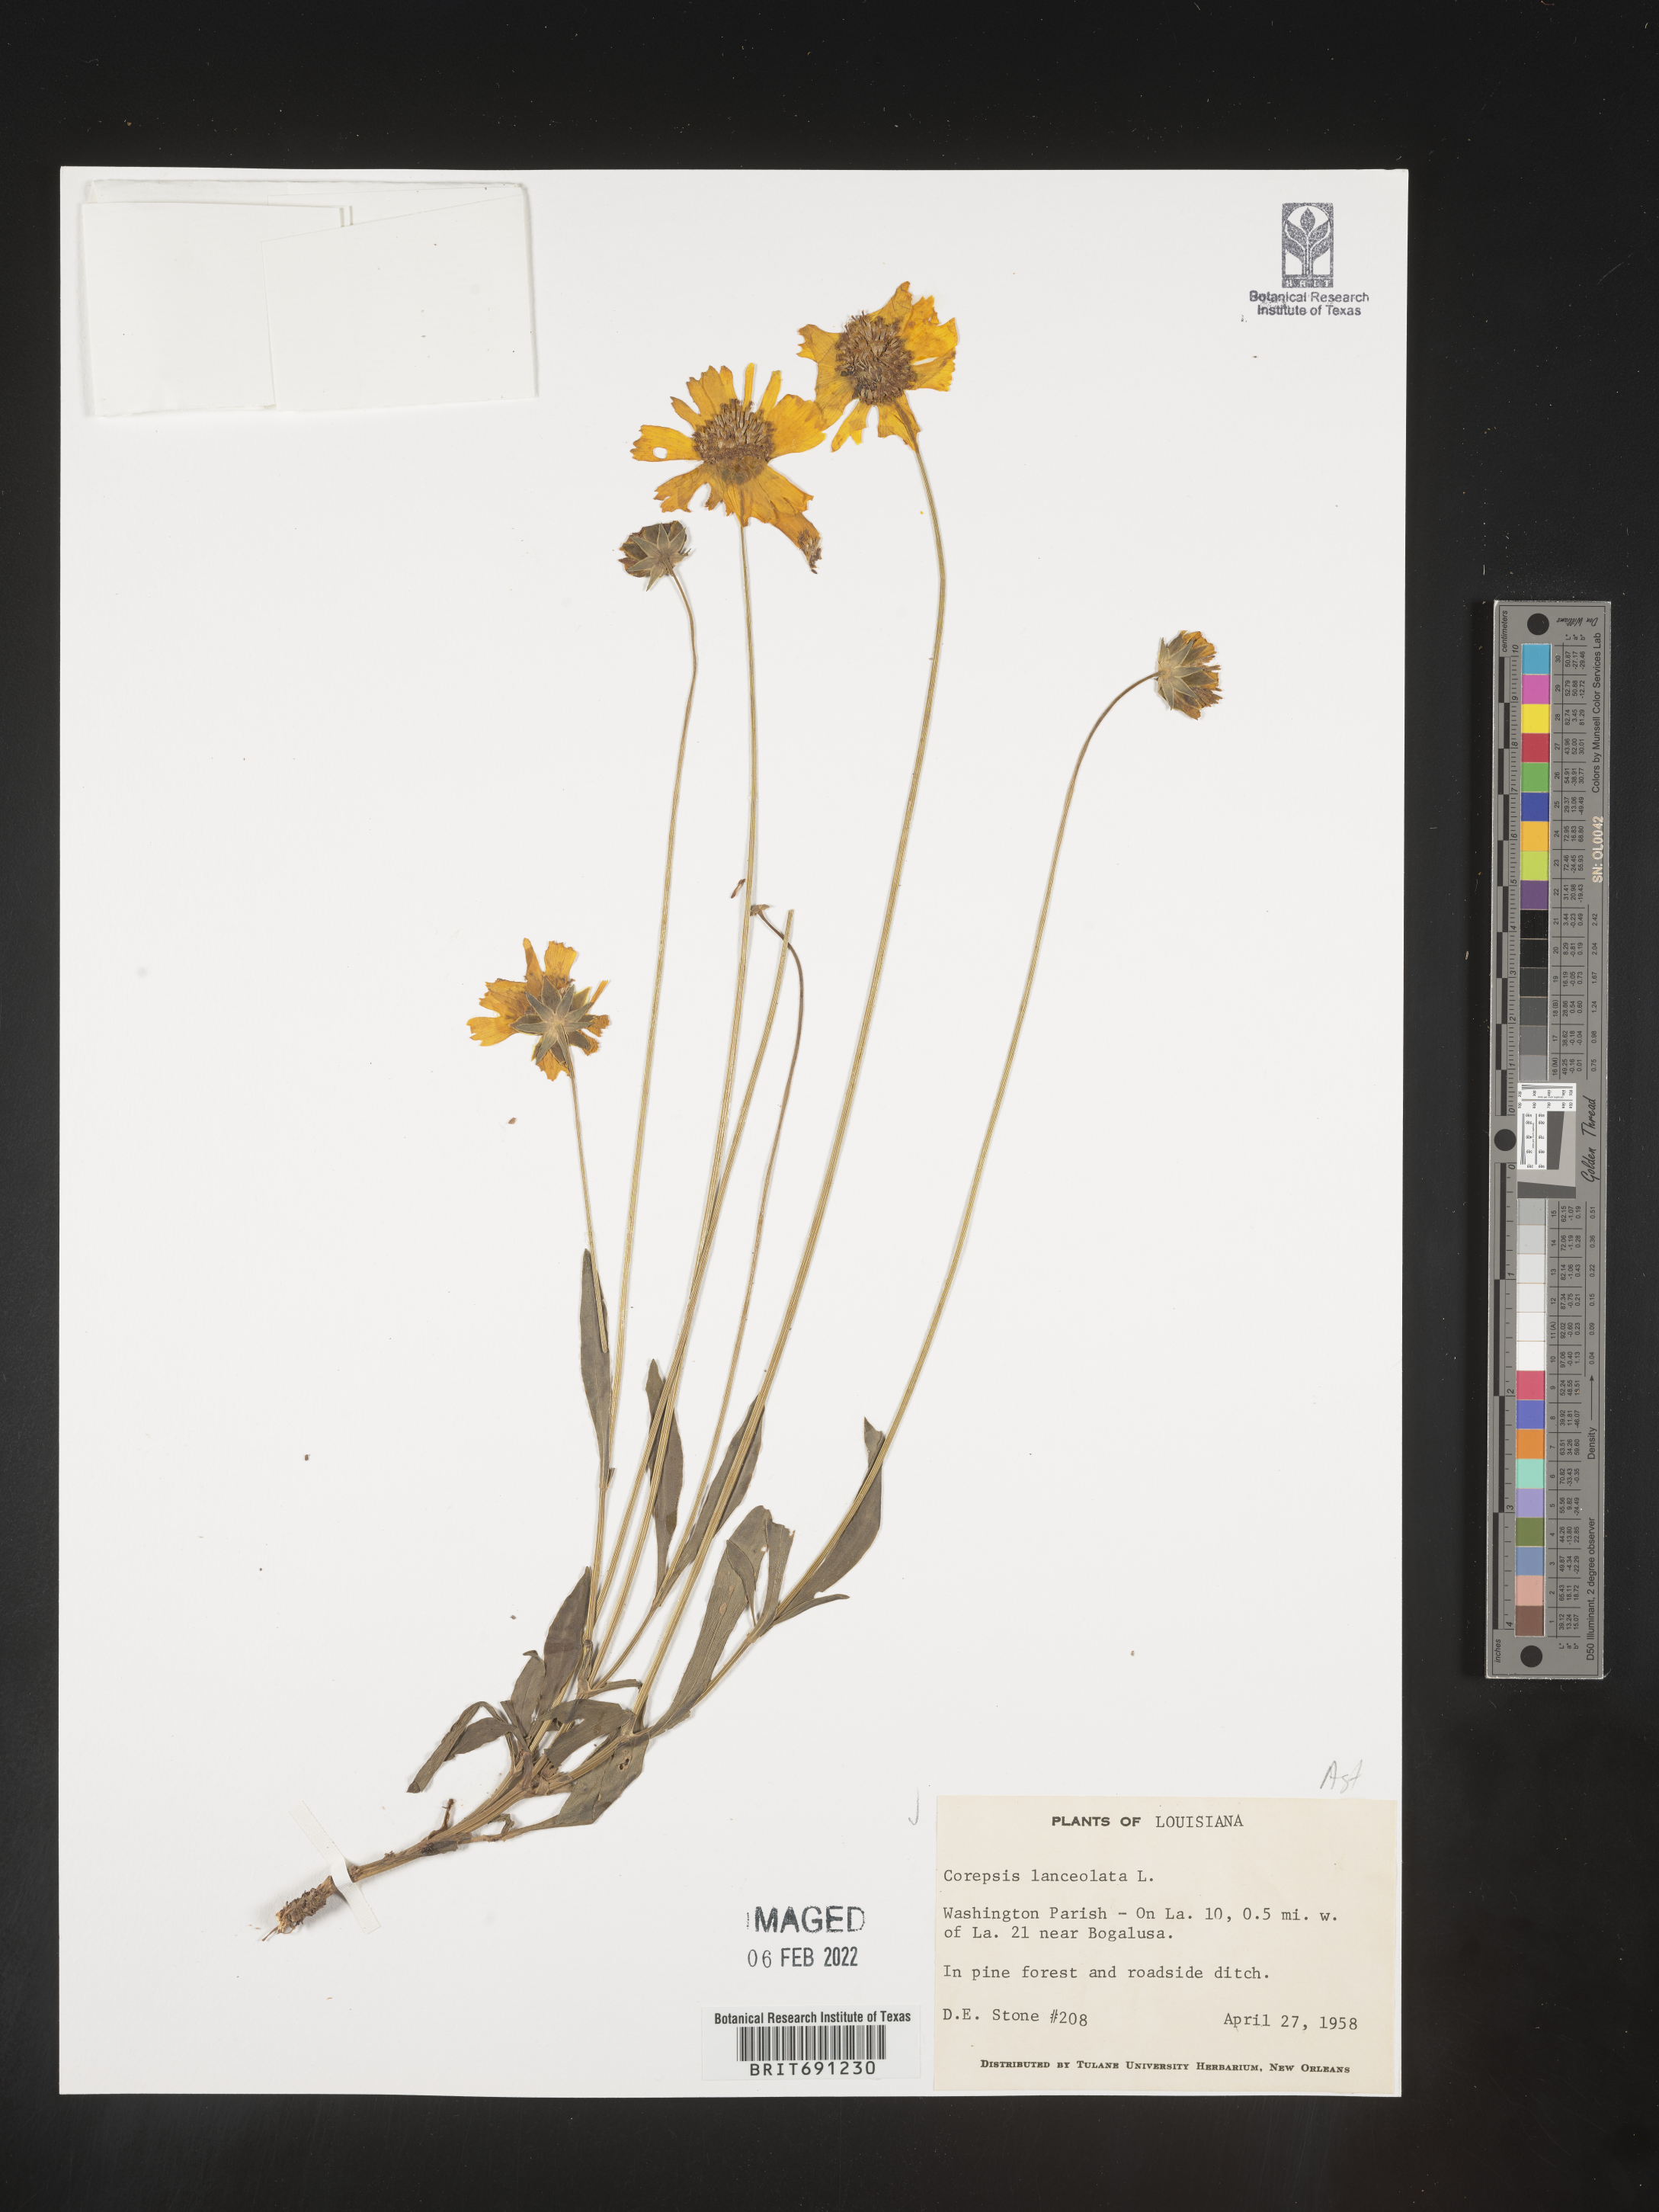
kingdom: Plantae
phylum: Tracheophyta
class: Magnoliopsida
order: Asterales
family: Asteraceae
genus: Coreopsis
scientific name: Coreopsis lanceolata
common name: Garden coreopsis
